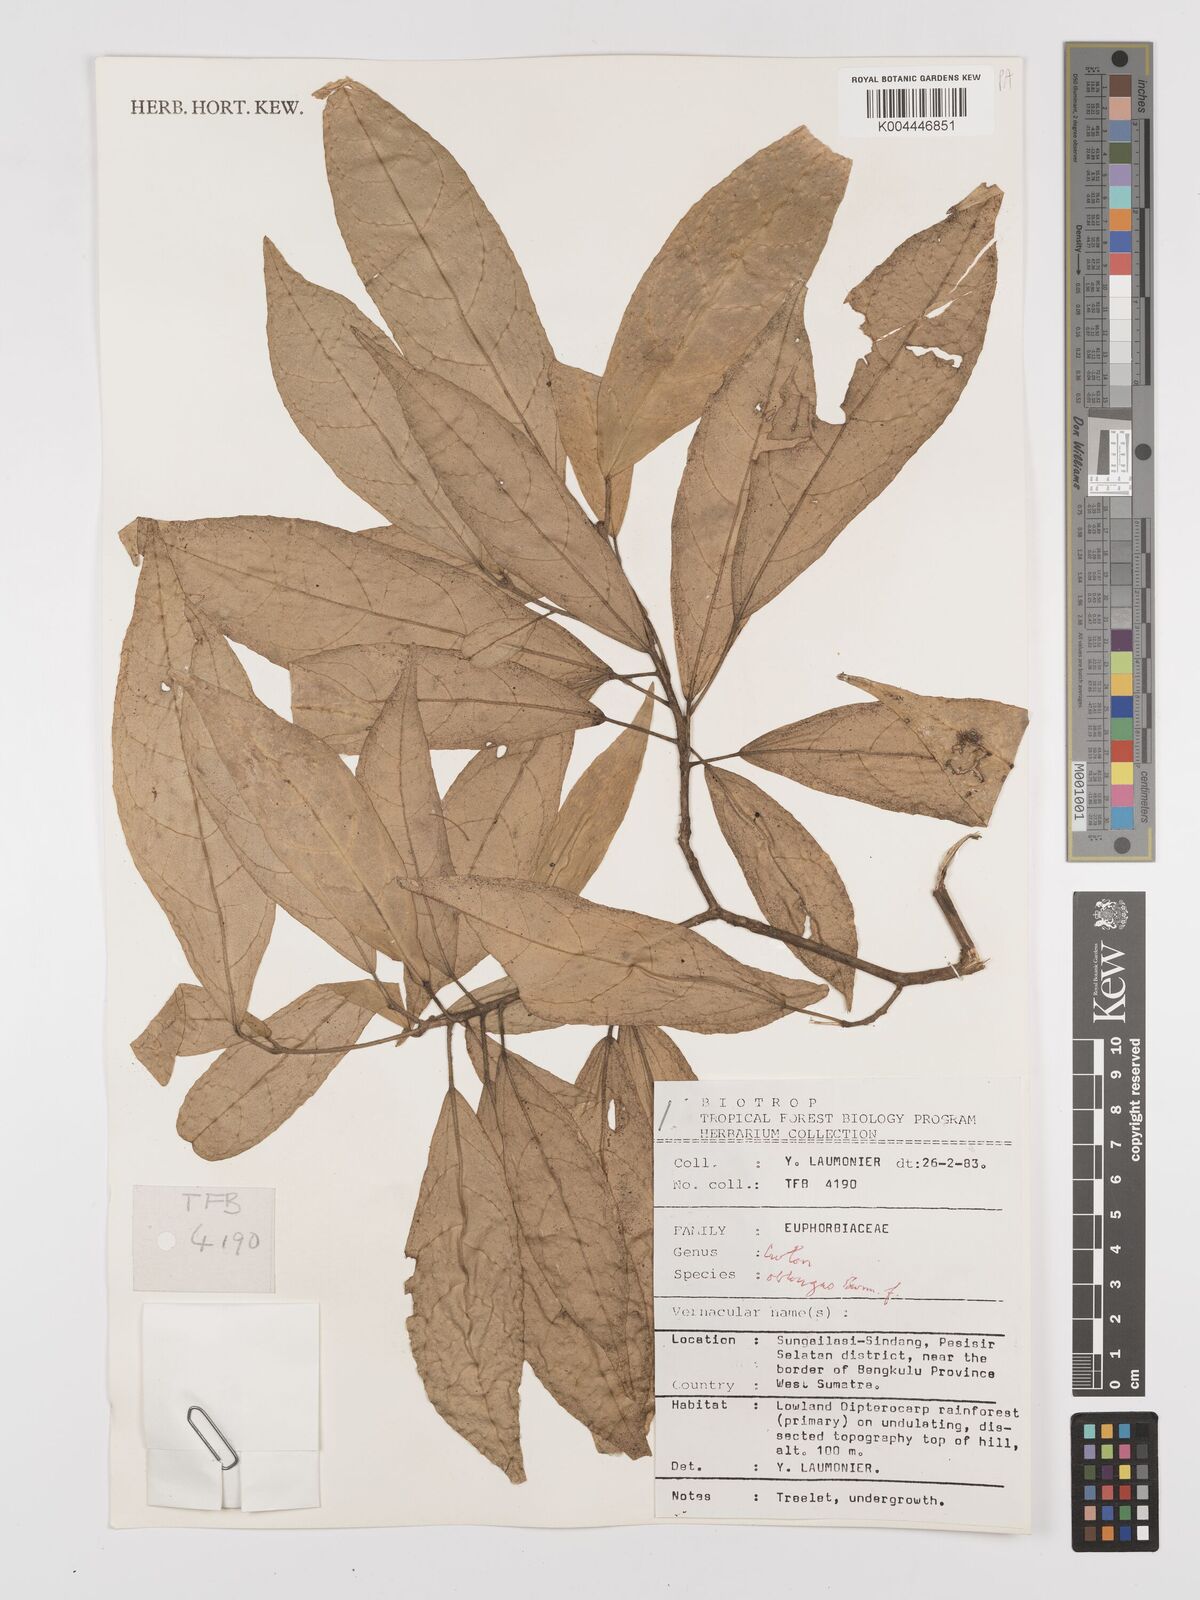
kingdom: Plantae
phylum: Tracheophyta
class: Magnoliopsida
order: Malpighiales
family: Euphorbiaceae
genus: Croton
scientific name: Croton oblongus
